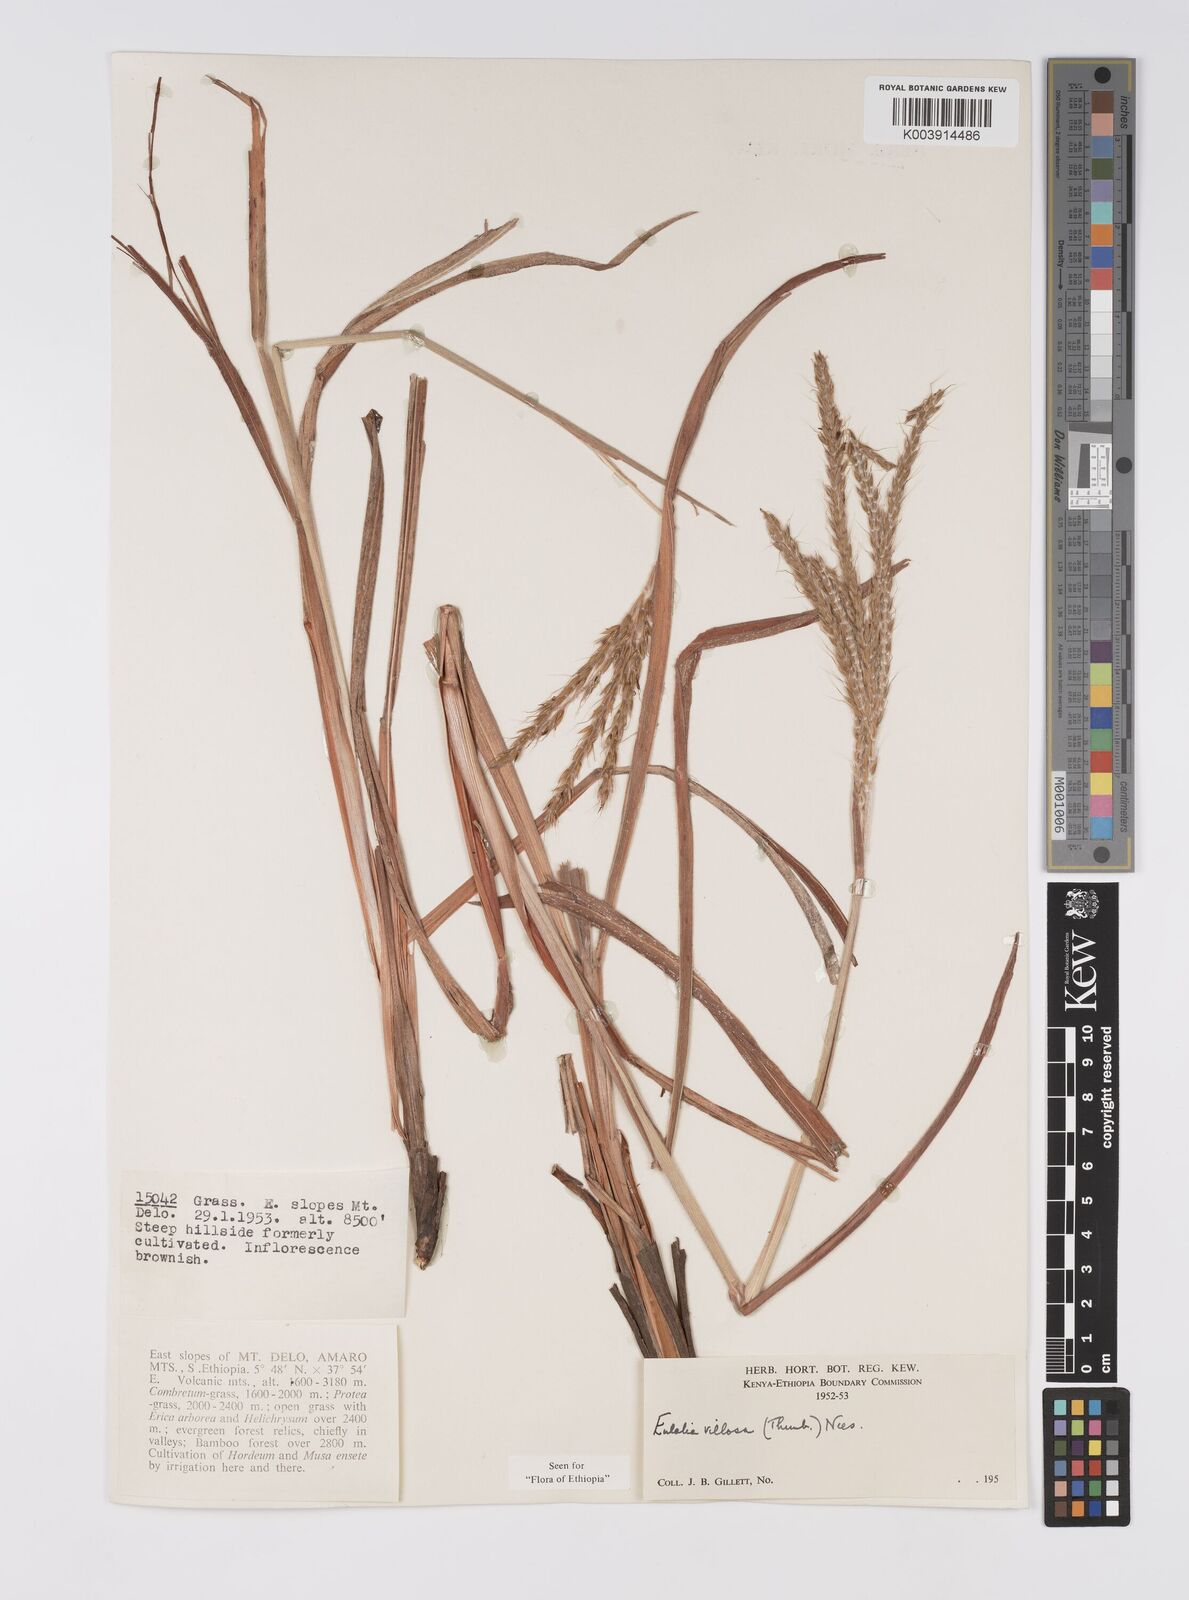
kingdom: Plantae
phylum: Tracheophyta
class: Liliopsida
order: Poales
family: Poaceae
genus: Eulalia
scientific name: Eulalia villosa
